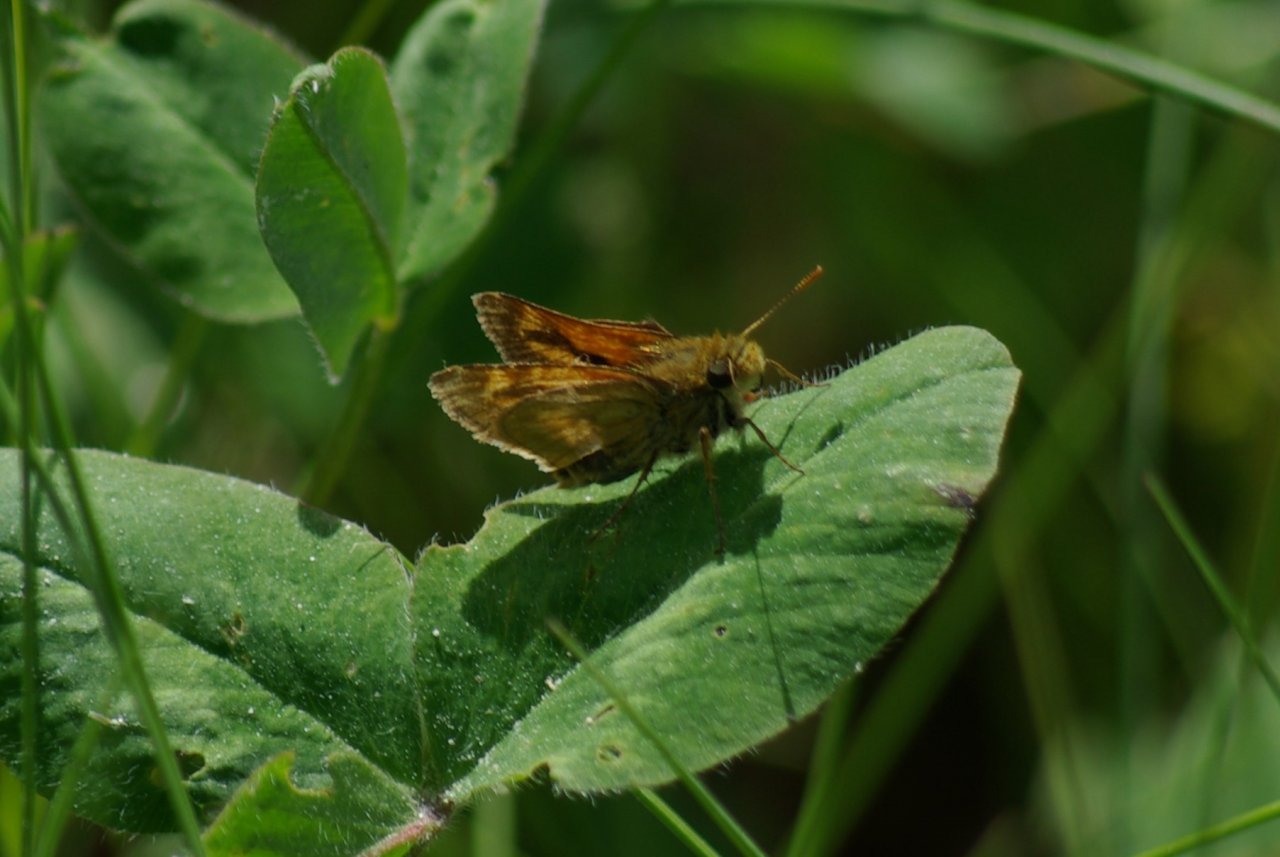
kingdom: Animalia
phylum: Arthropoda
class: Insecta
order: Lepidoptera
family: Hesperiidae
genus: Polites
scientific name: Polites
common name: Long Dash Skipper
